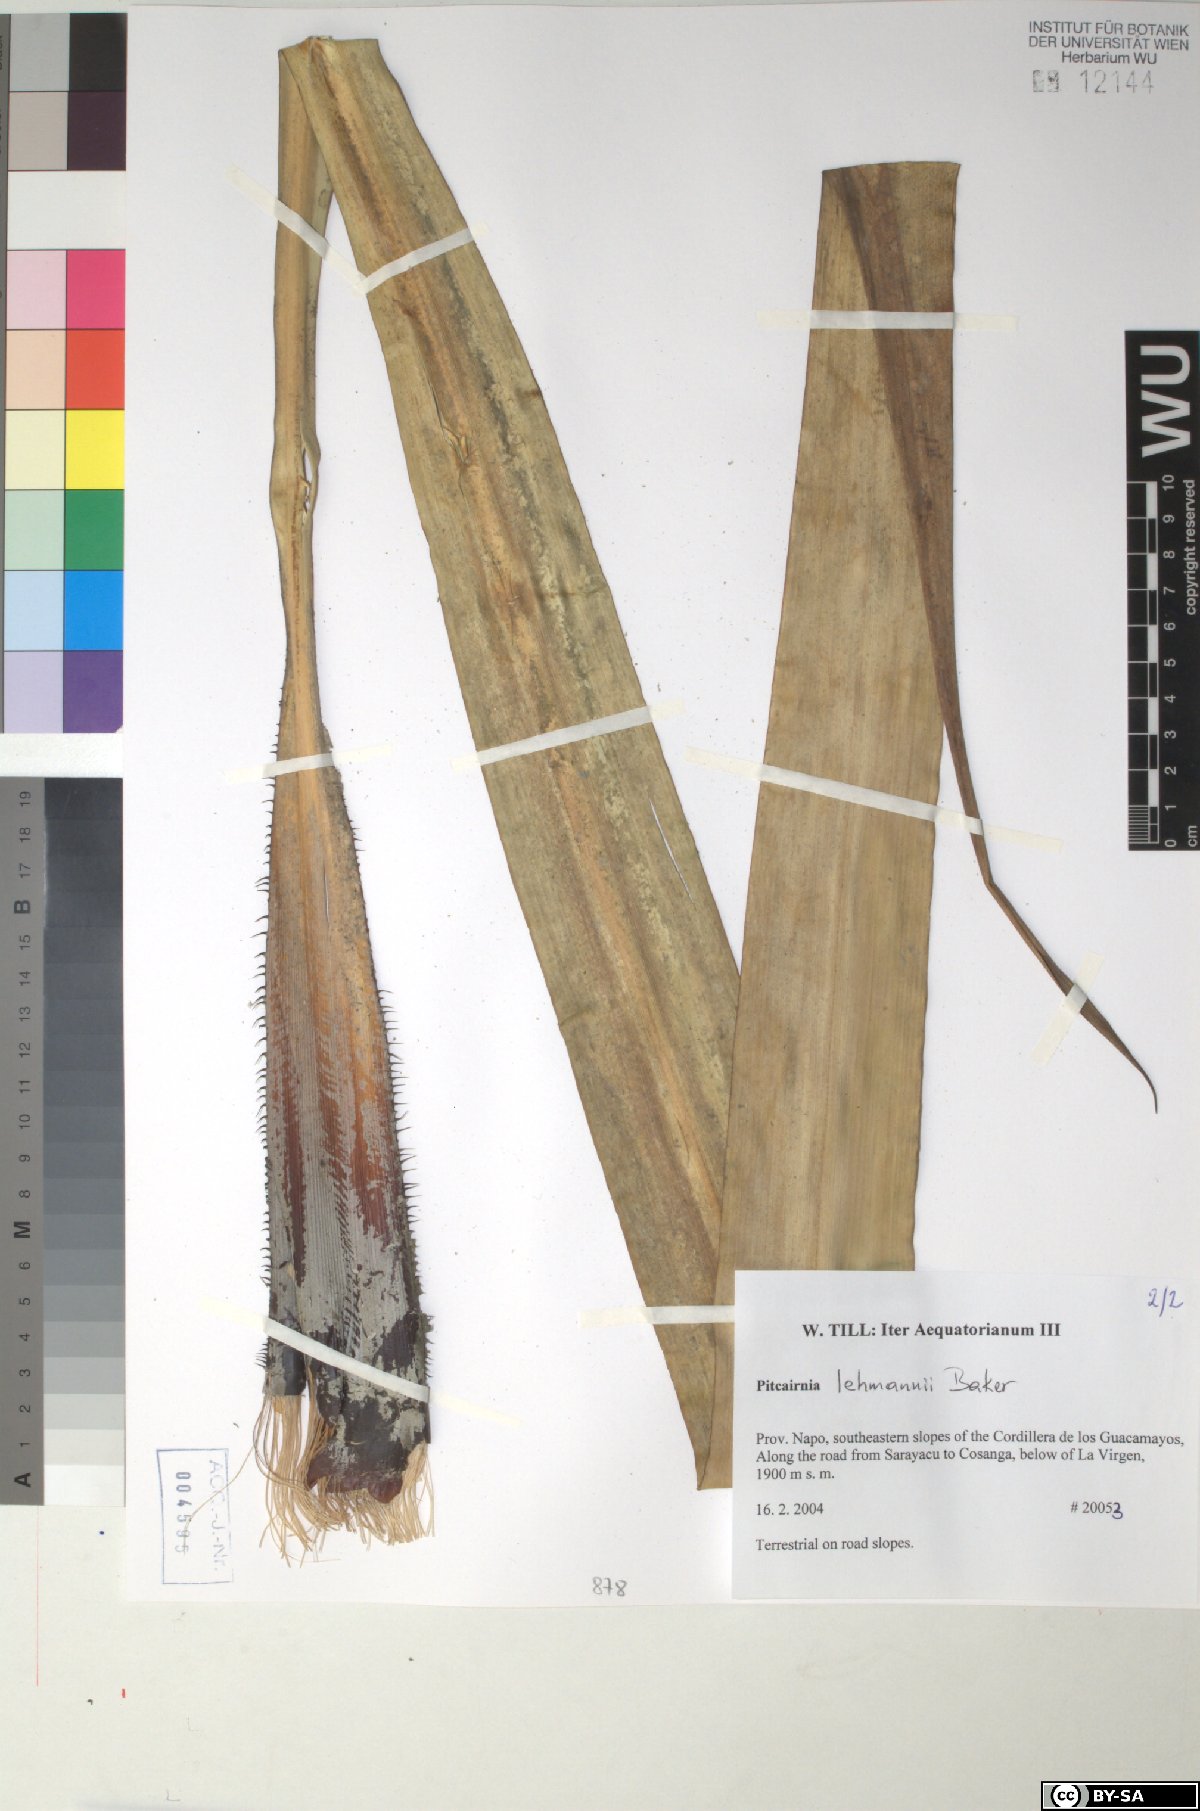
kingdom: Plantae
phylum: Tracheophyta
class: Liliopsida
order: Poales
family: Bromeliaceae
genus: Pitcairnia
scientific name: Pitcairnia lehmannii
